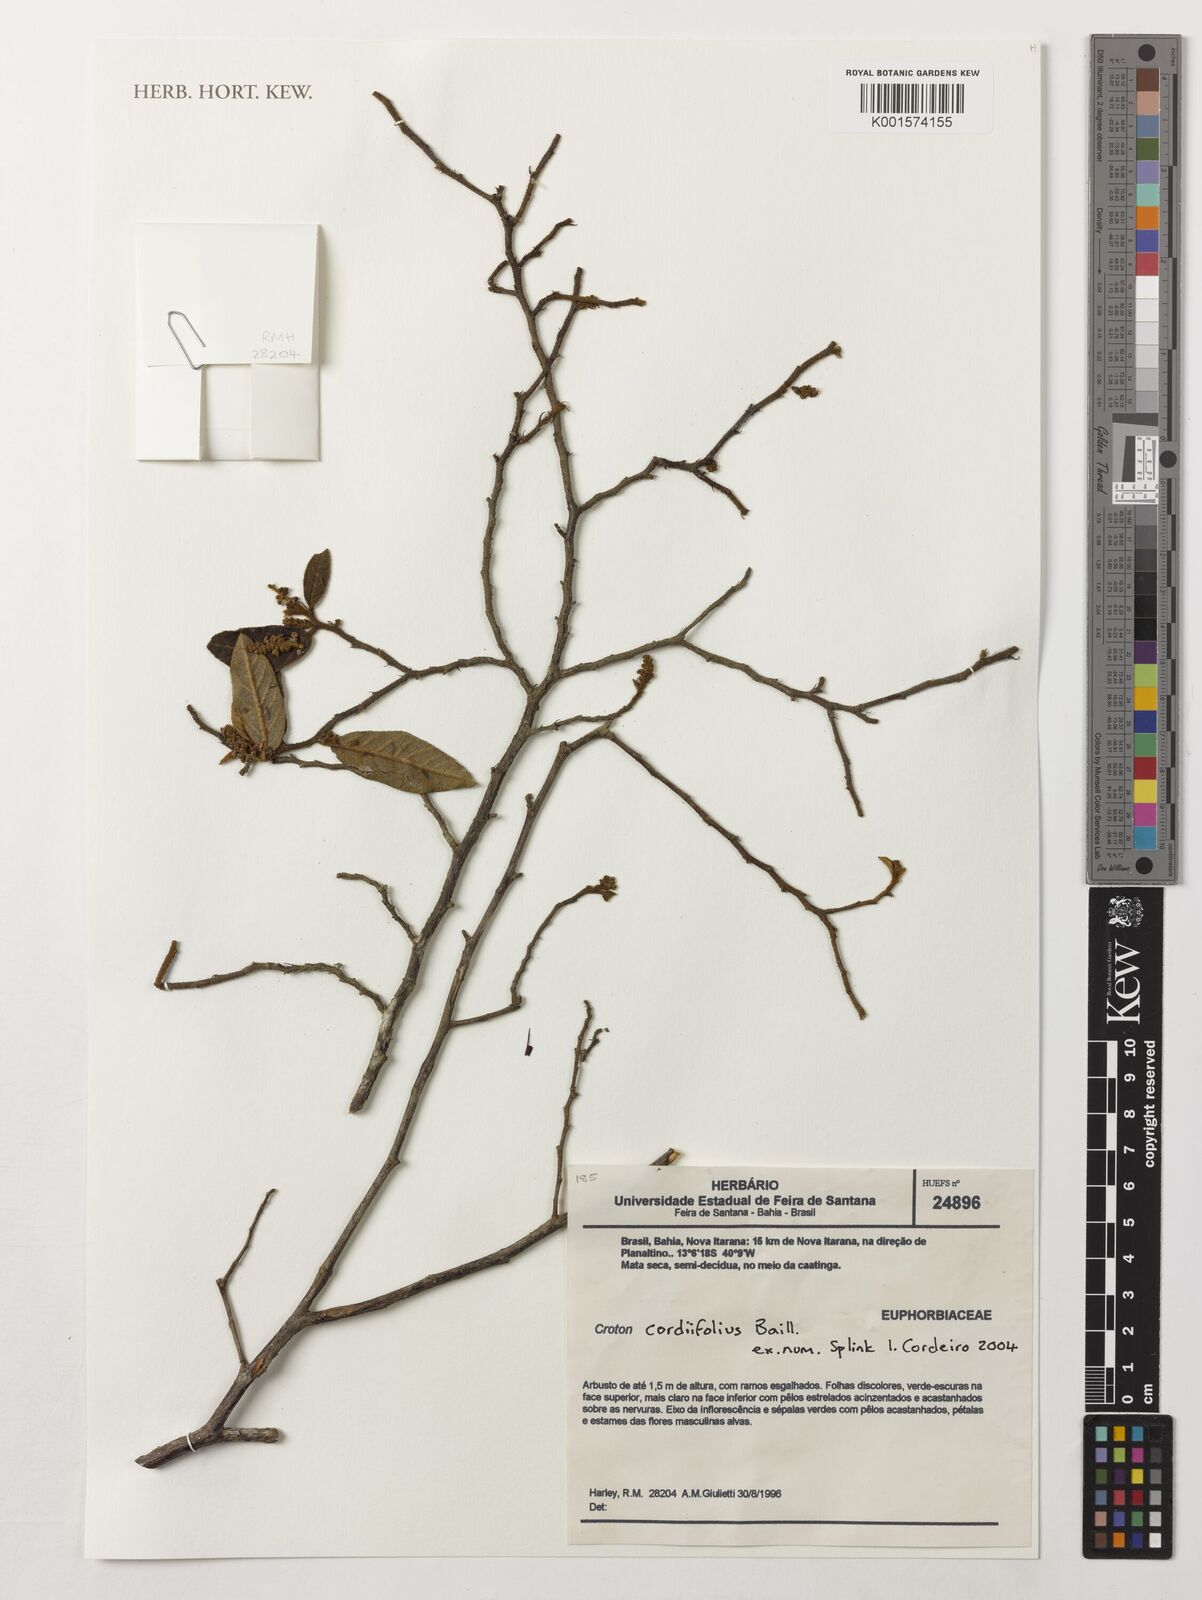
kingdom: Plantae
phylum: Tracheophyta
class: Magnoliopsida
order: Malpighiales
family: Euphorbiaceae
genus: Croton
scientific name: Croton cordiifolius
